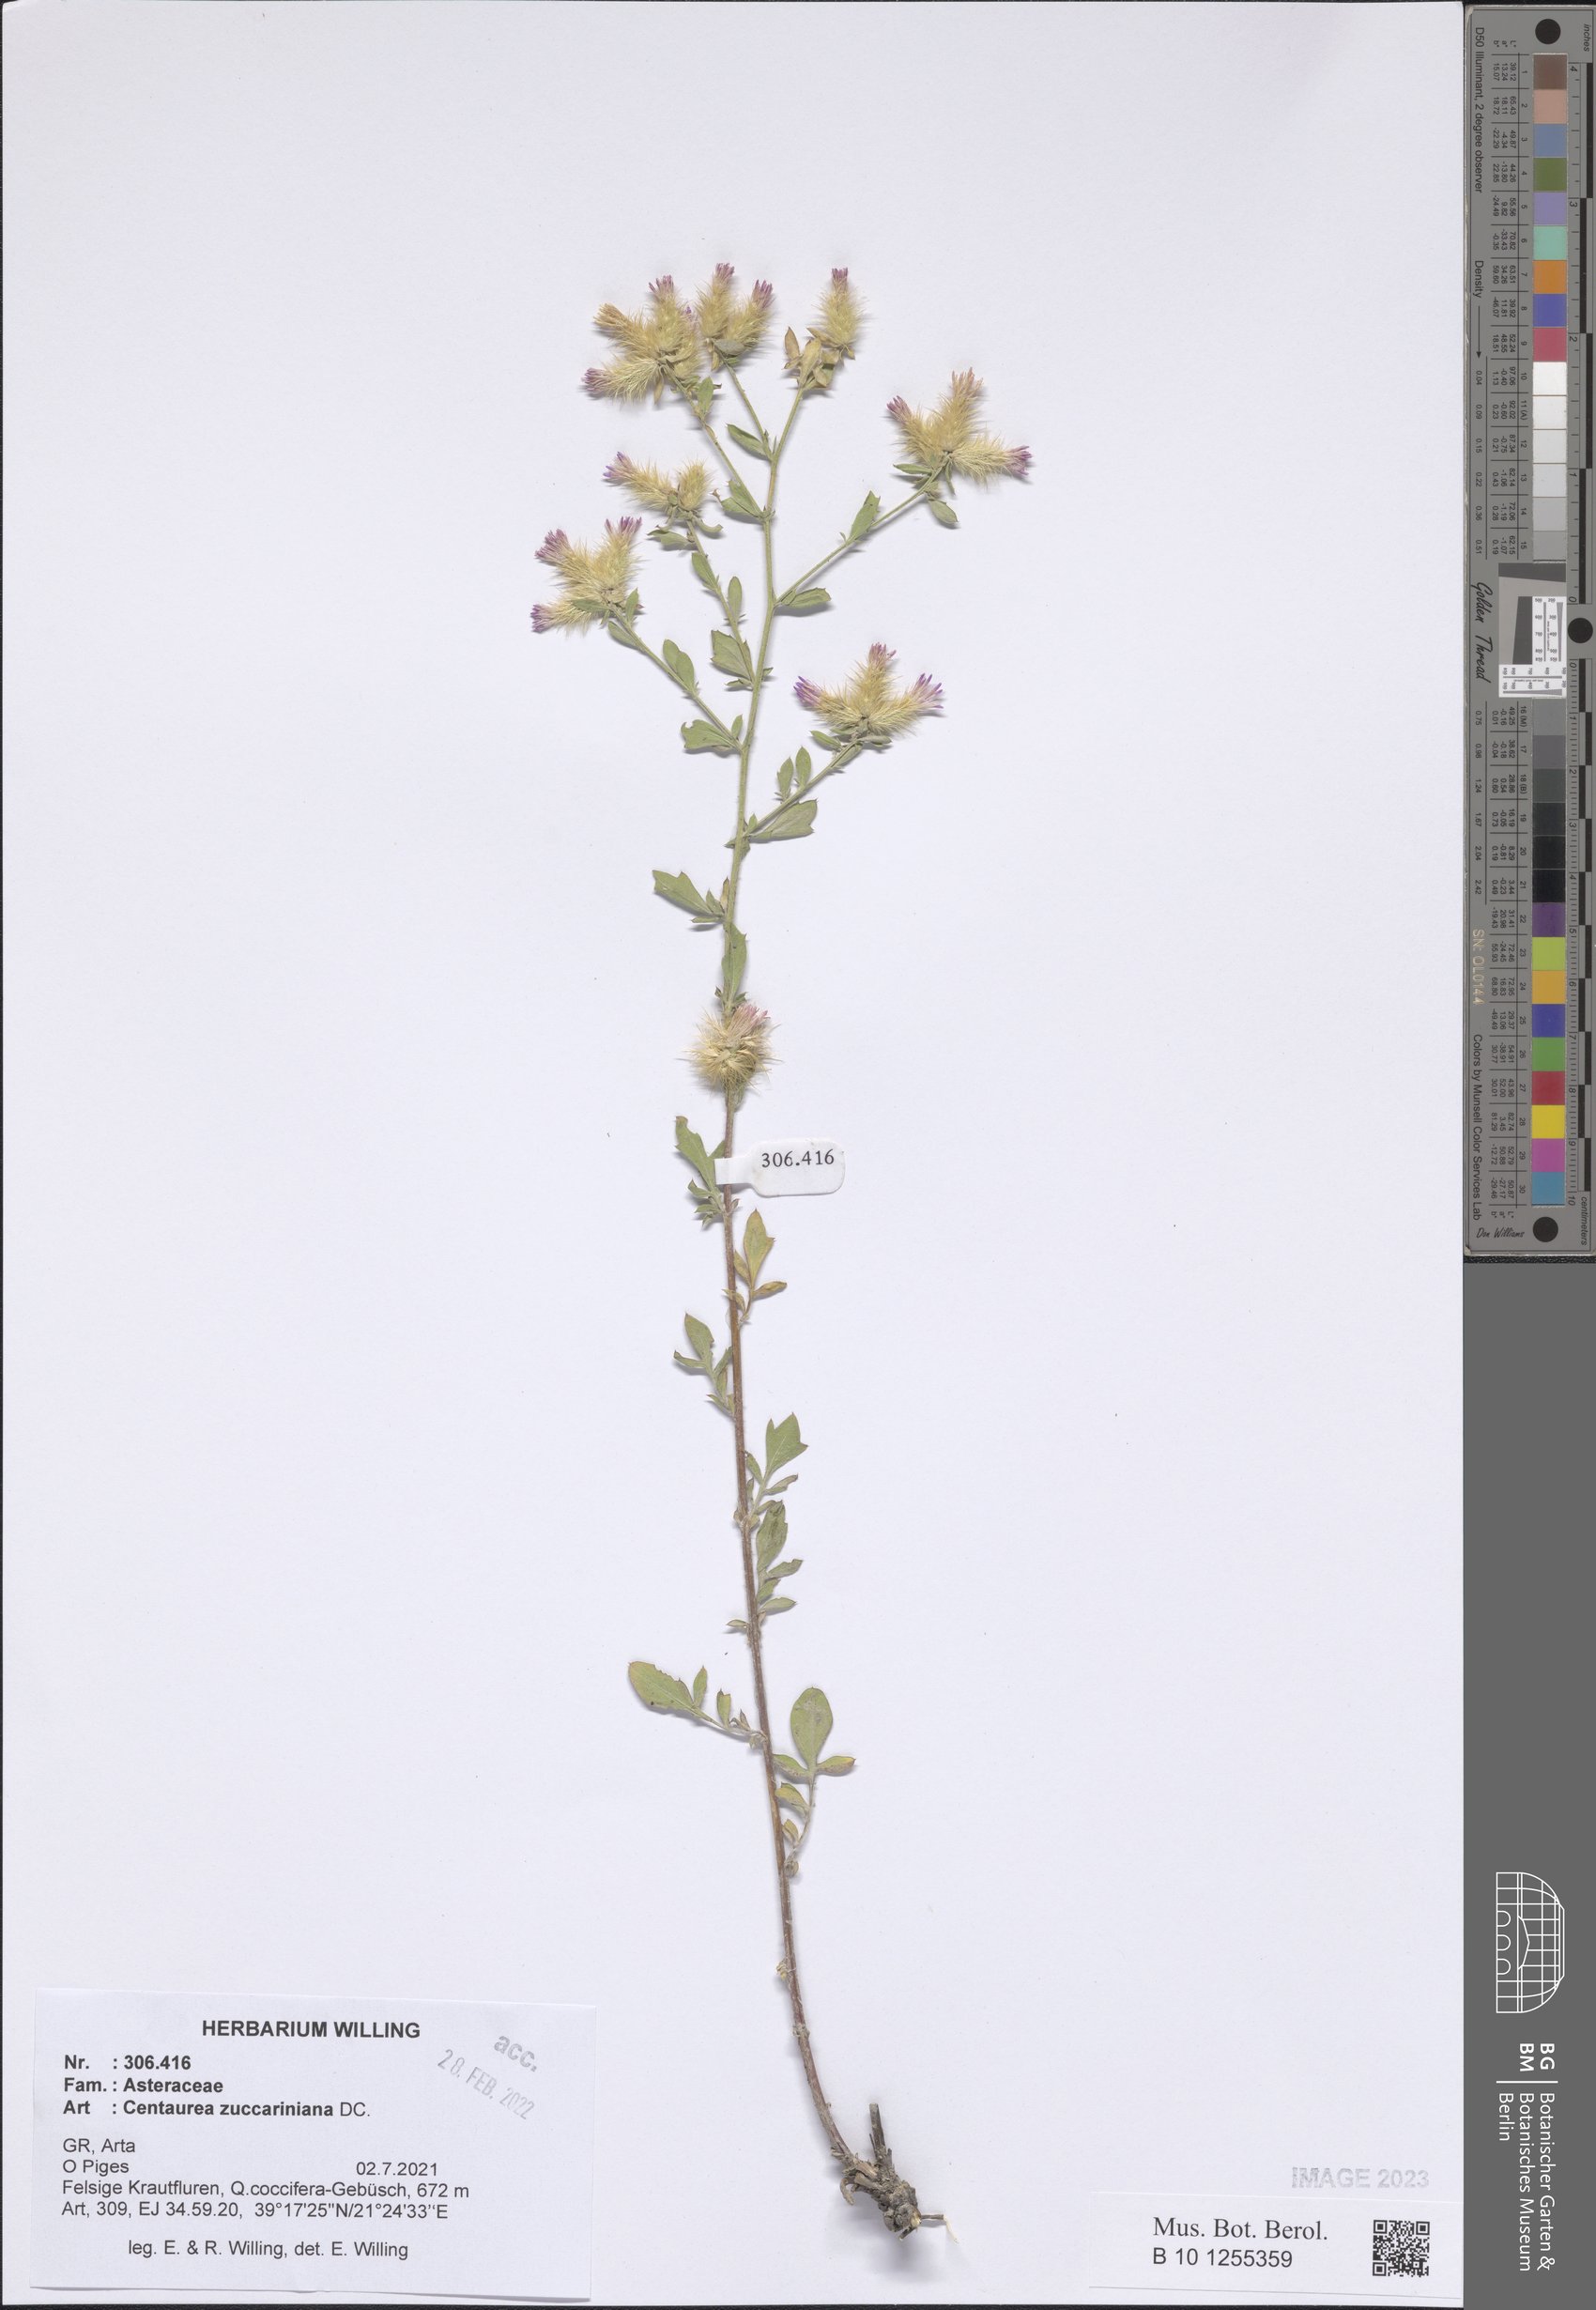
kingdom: Plantae
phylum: Tracheophyta
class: Magnoliopsida
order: Asterales
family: Asteraceae
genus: Centaurea
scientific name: Centaurea zuccariniana
